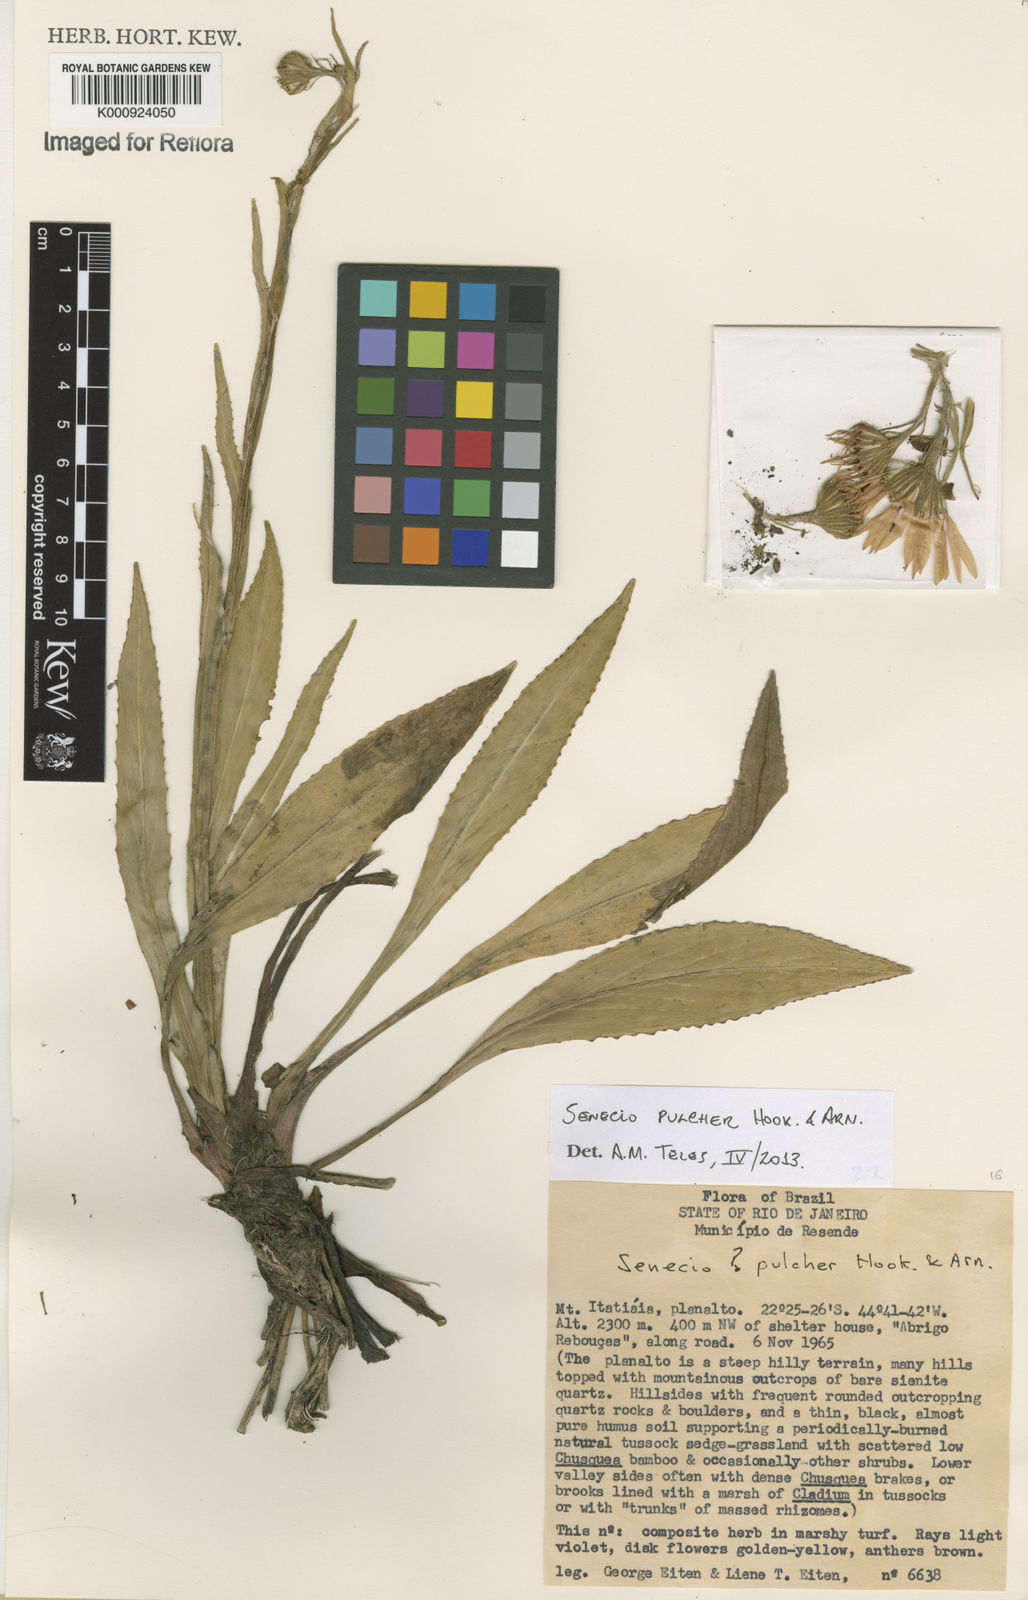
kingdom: Plantae
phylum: Tracheophyta
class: Magnoliopsida
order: Asterales
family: Asteraceae
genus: Senecio
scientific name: Senecio pulcher
